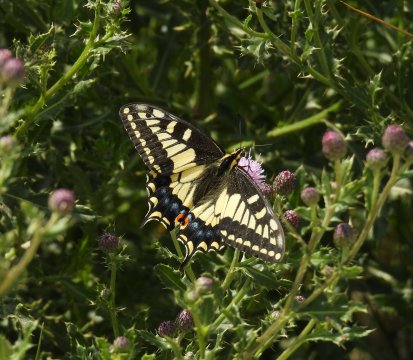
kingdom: Animalia
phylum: Arthropoda
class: Insecta
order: Lepidoptera
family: Papilionidae
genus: Papilio
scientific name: Papilio zelicaon
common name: Anise Swallowtail
